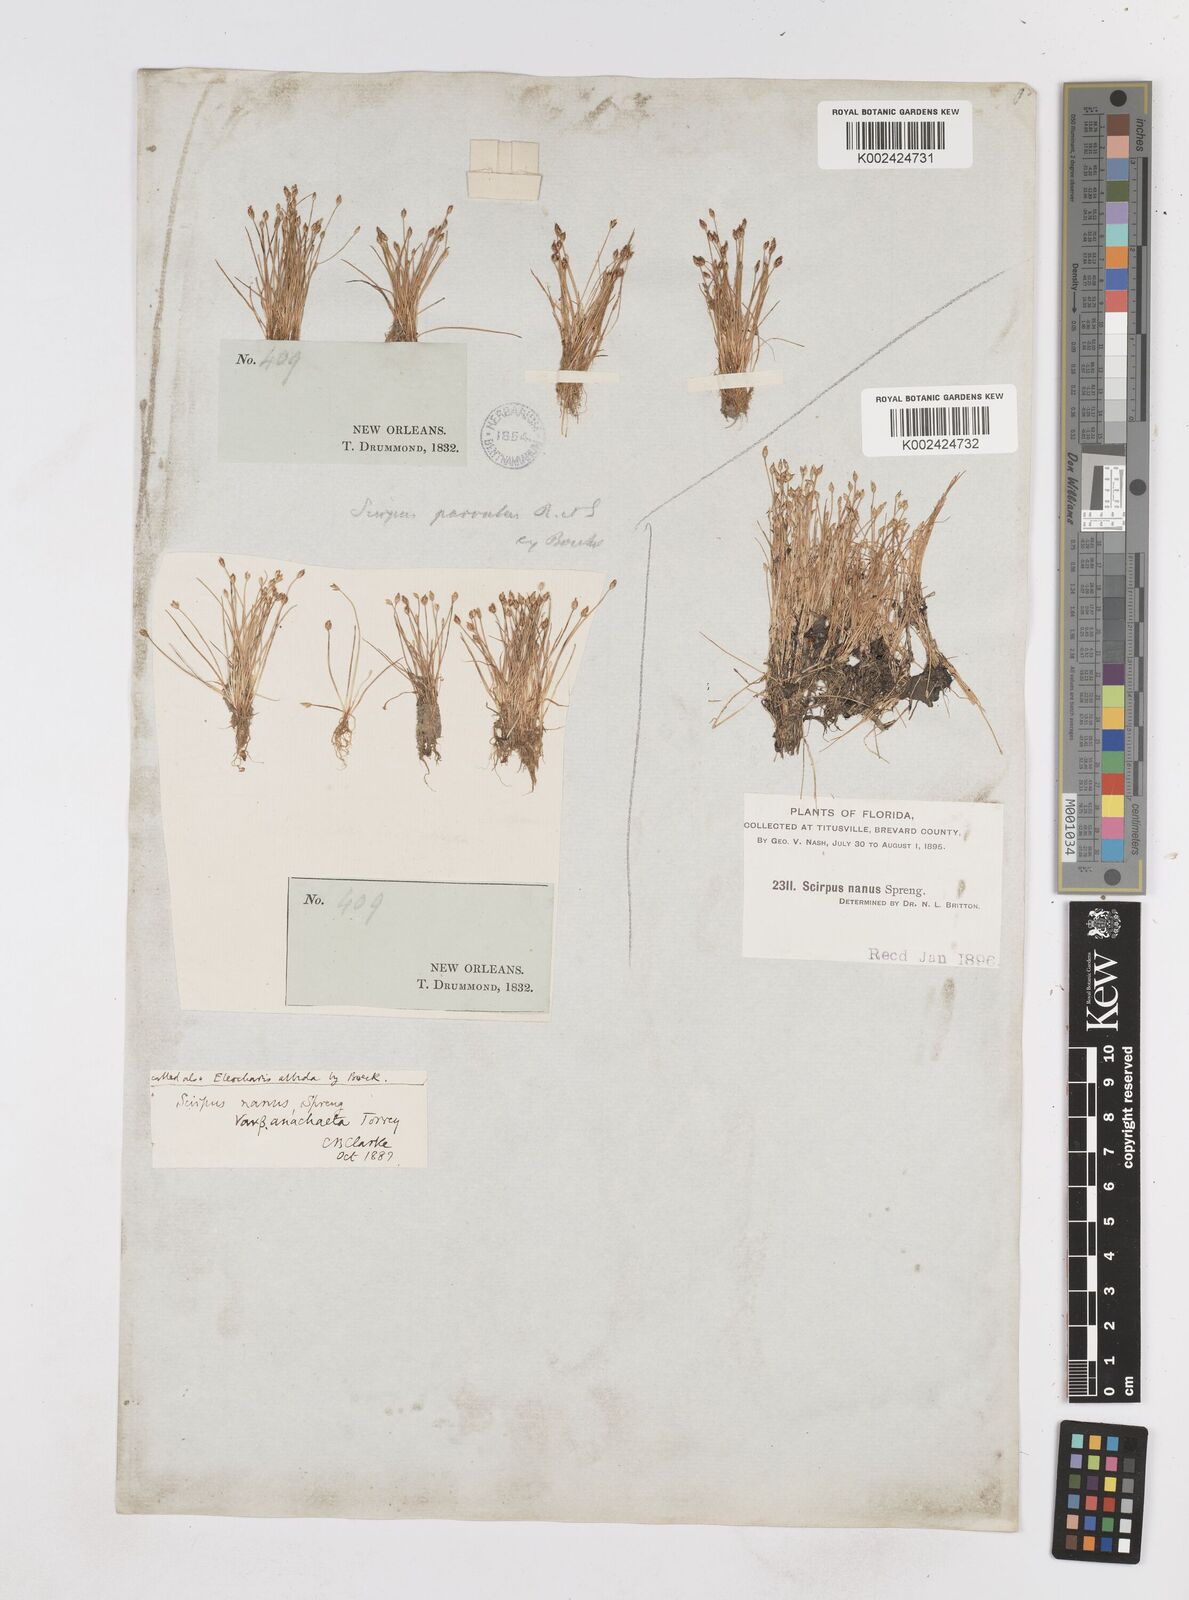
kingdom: Plantae
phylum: Tracheophyta
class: Liliopsida
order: Poales
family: Cyperaceae
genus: Eleocharis
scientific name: Eleocharis parvula
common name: Dwarf spike-rush
